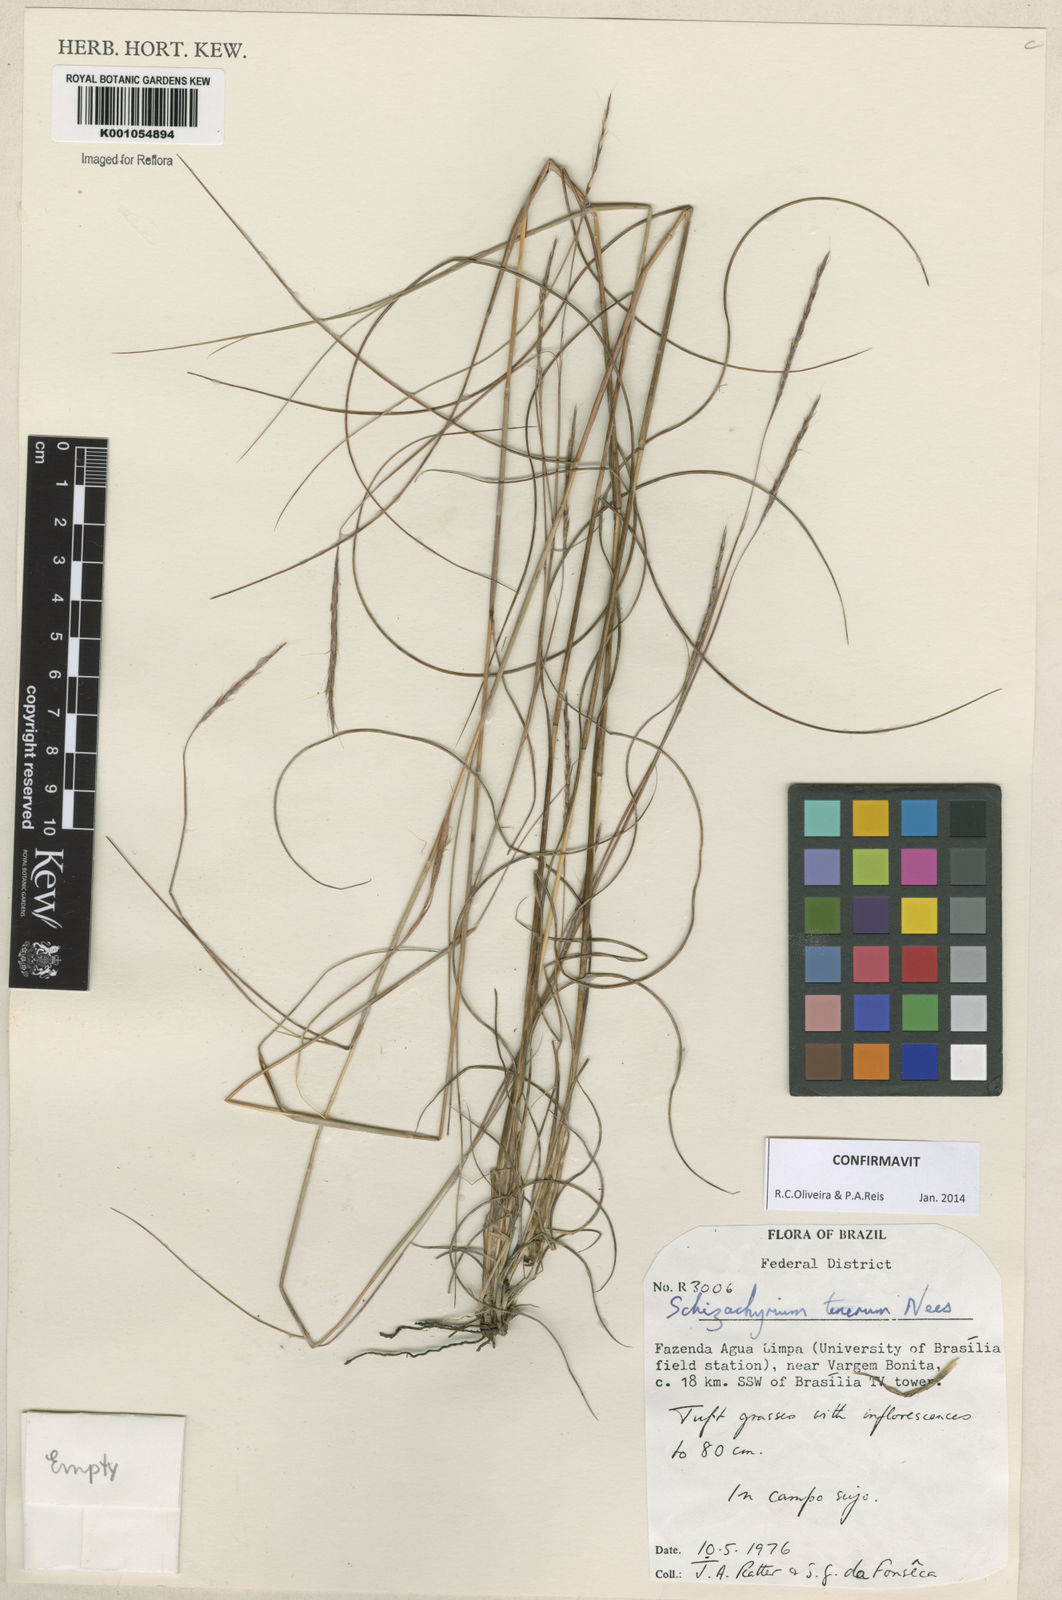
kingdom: Plantae
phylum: Tracheophyta
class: Liliopsida
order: Poales
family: Poaceae
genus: Andropogon
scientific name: Andropogon tener
